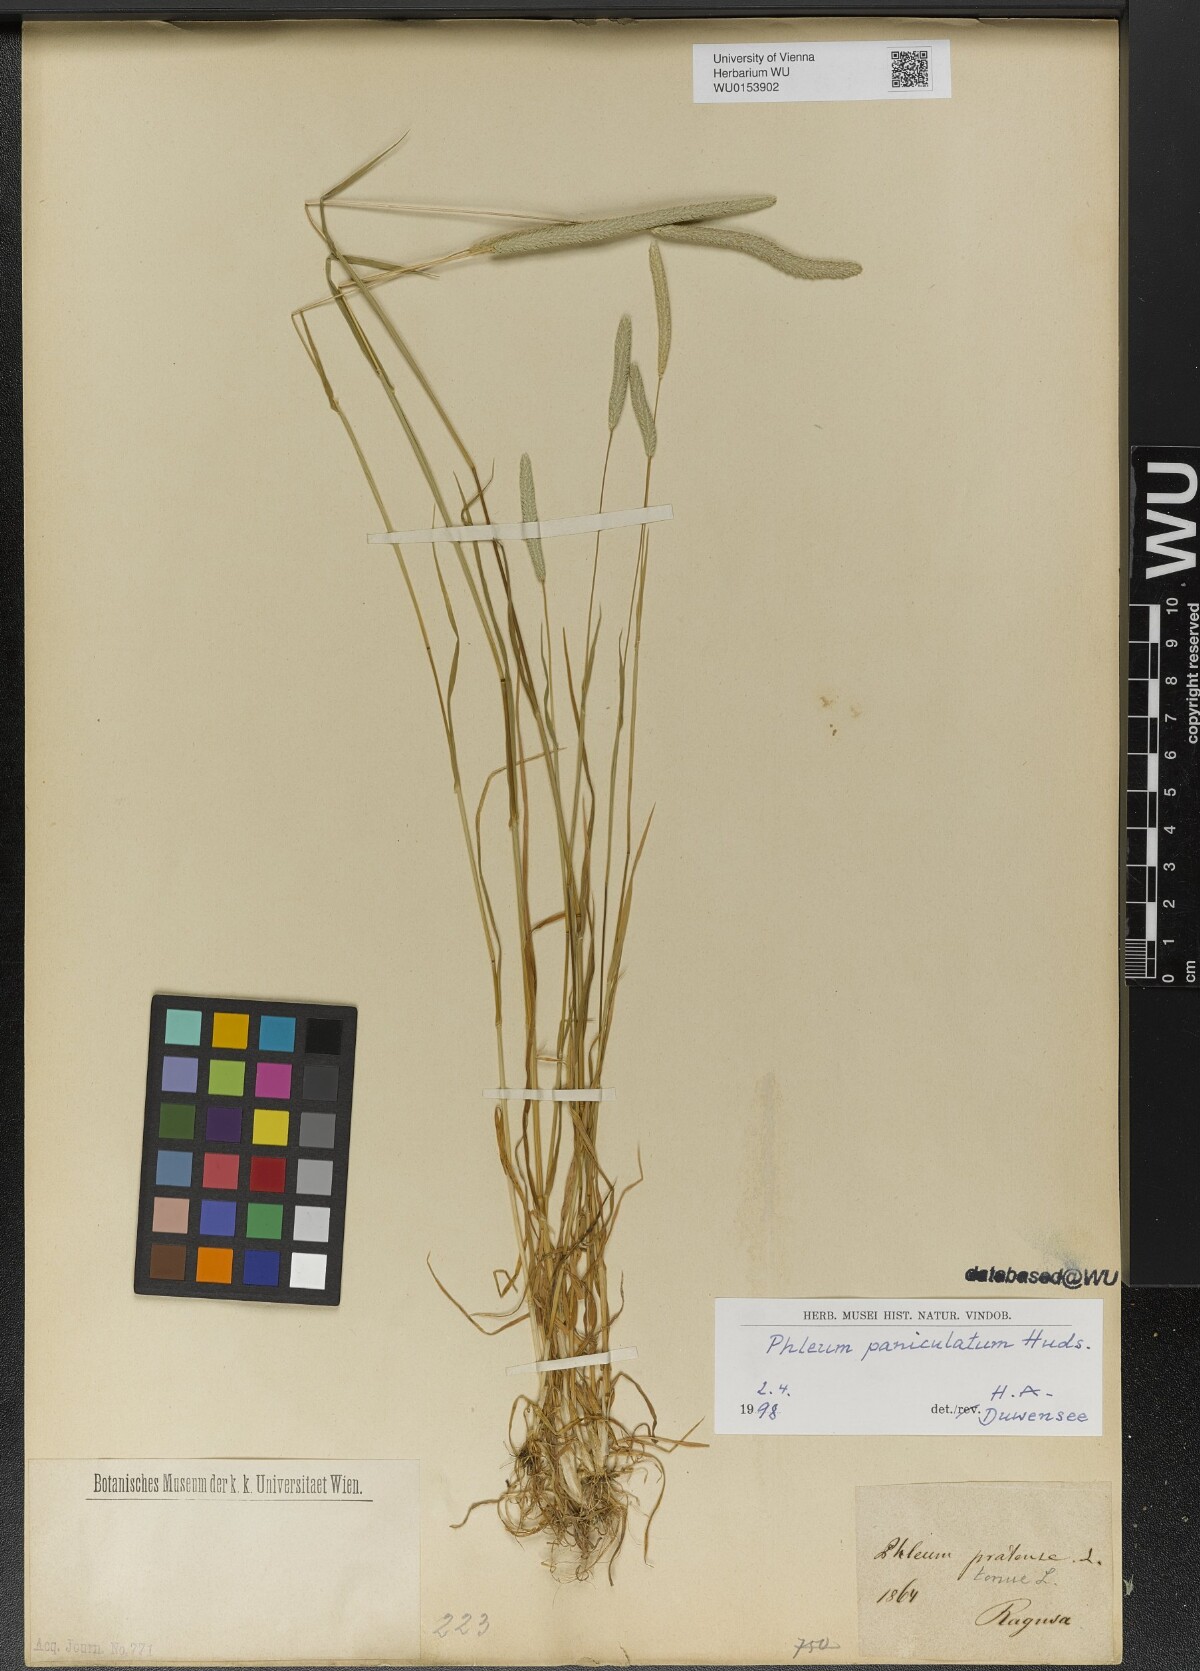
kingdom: Plantae
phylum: Tracheophyta
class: Liliopsida
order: Poales
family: Poaceae
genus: Phleum
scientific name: Phleum paniculatum
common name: British timothy
